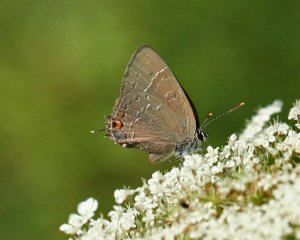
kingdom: Animalia
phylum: Arthropoda
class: Insecta
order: Lepidoptera
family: Lycaenidae
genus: Satyrium
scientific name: Satyrium calanus
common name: Banded Hairstreak
